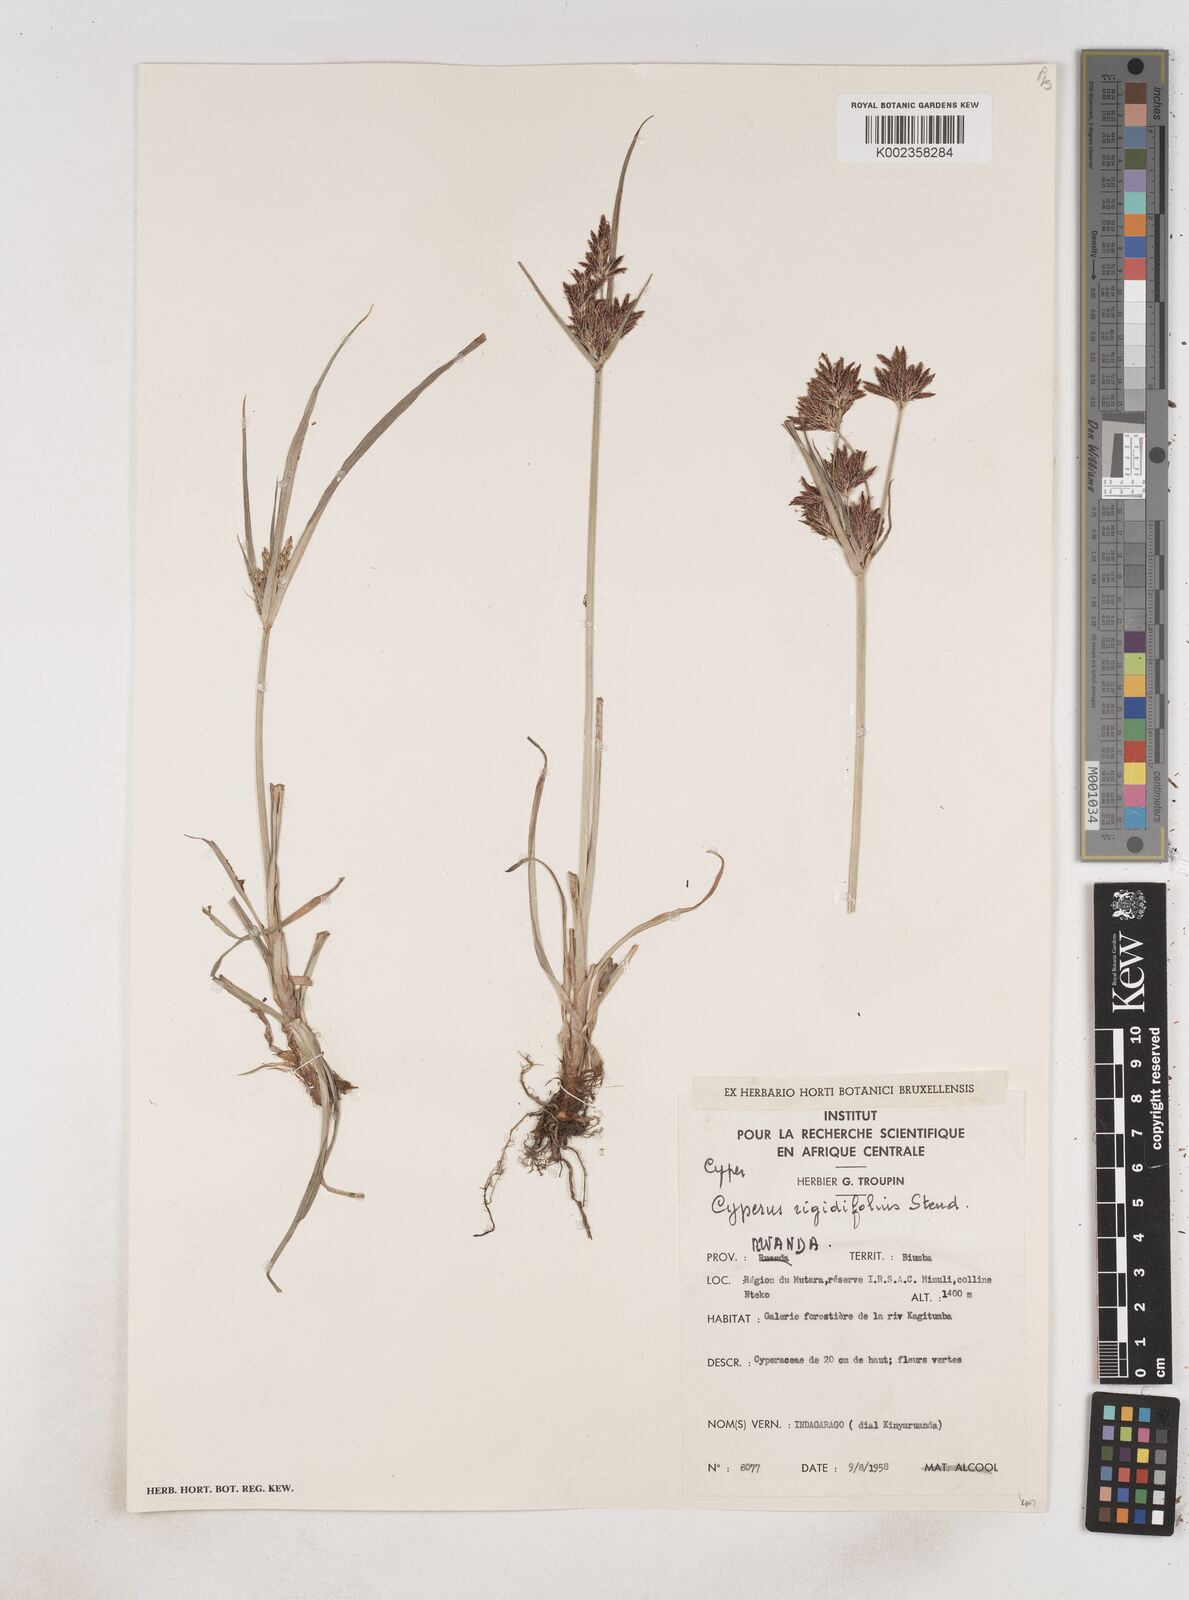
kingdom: Plantae
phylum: Tracheophyta
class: Liliopsida
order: Poales
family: Cyperaceae
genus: Cyperus
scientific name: Cyperus rigidifolius
